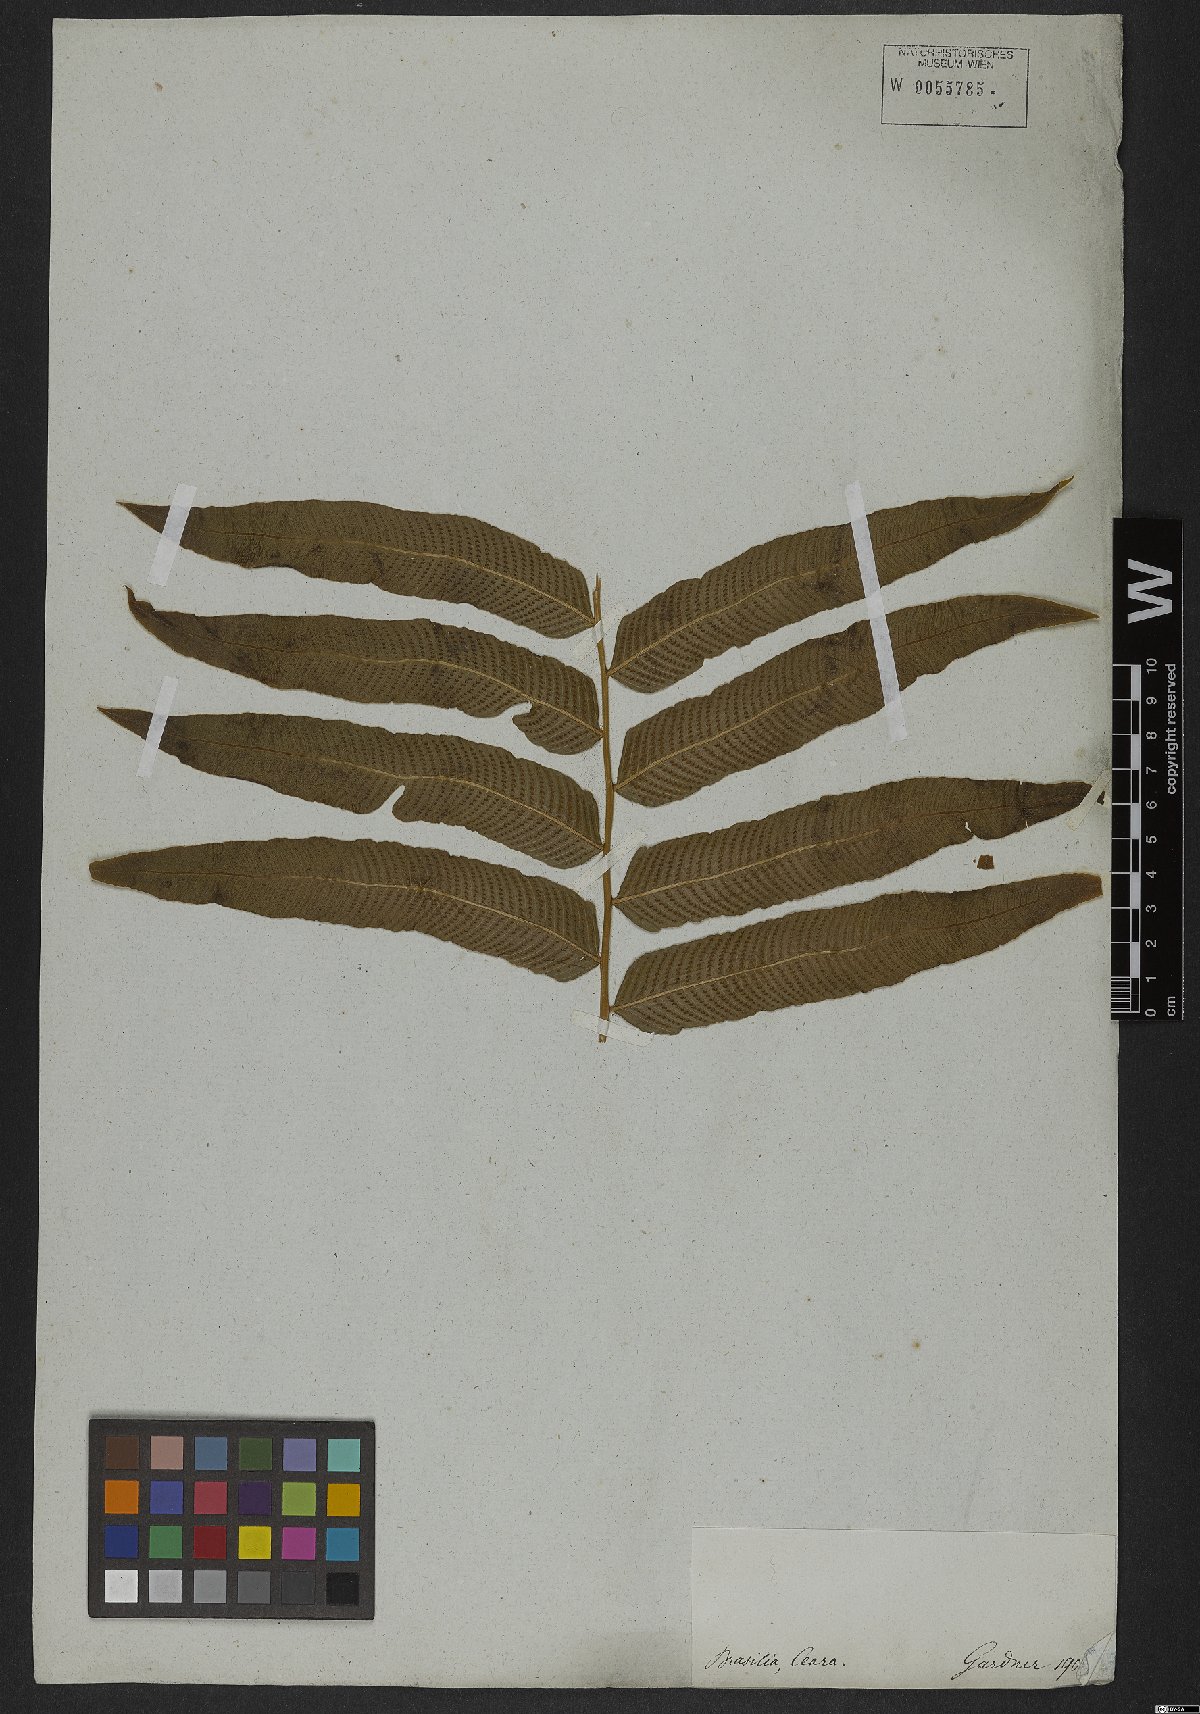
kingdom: Plantae
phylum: Tracheophyta
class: Polypodiopsida
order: Polypodiales
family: Thelypteridaceae
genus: Meniscium
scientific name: Meniscium reticulatum
